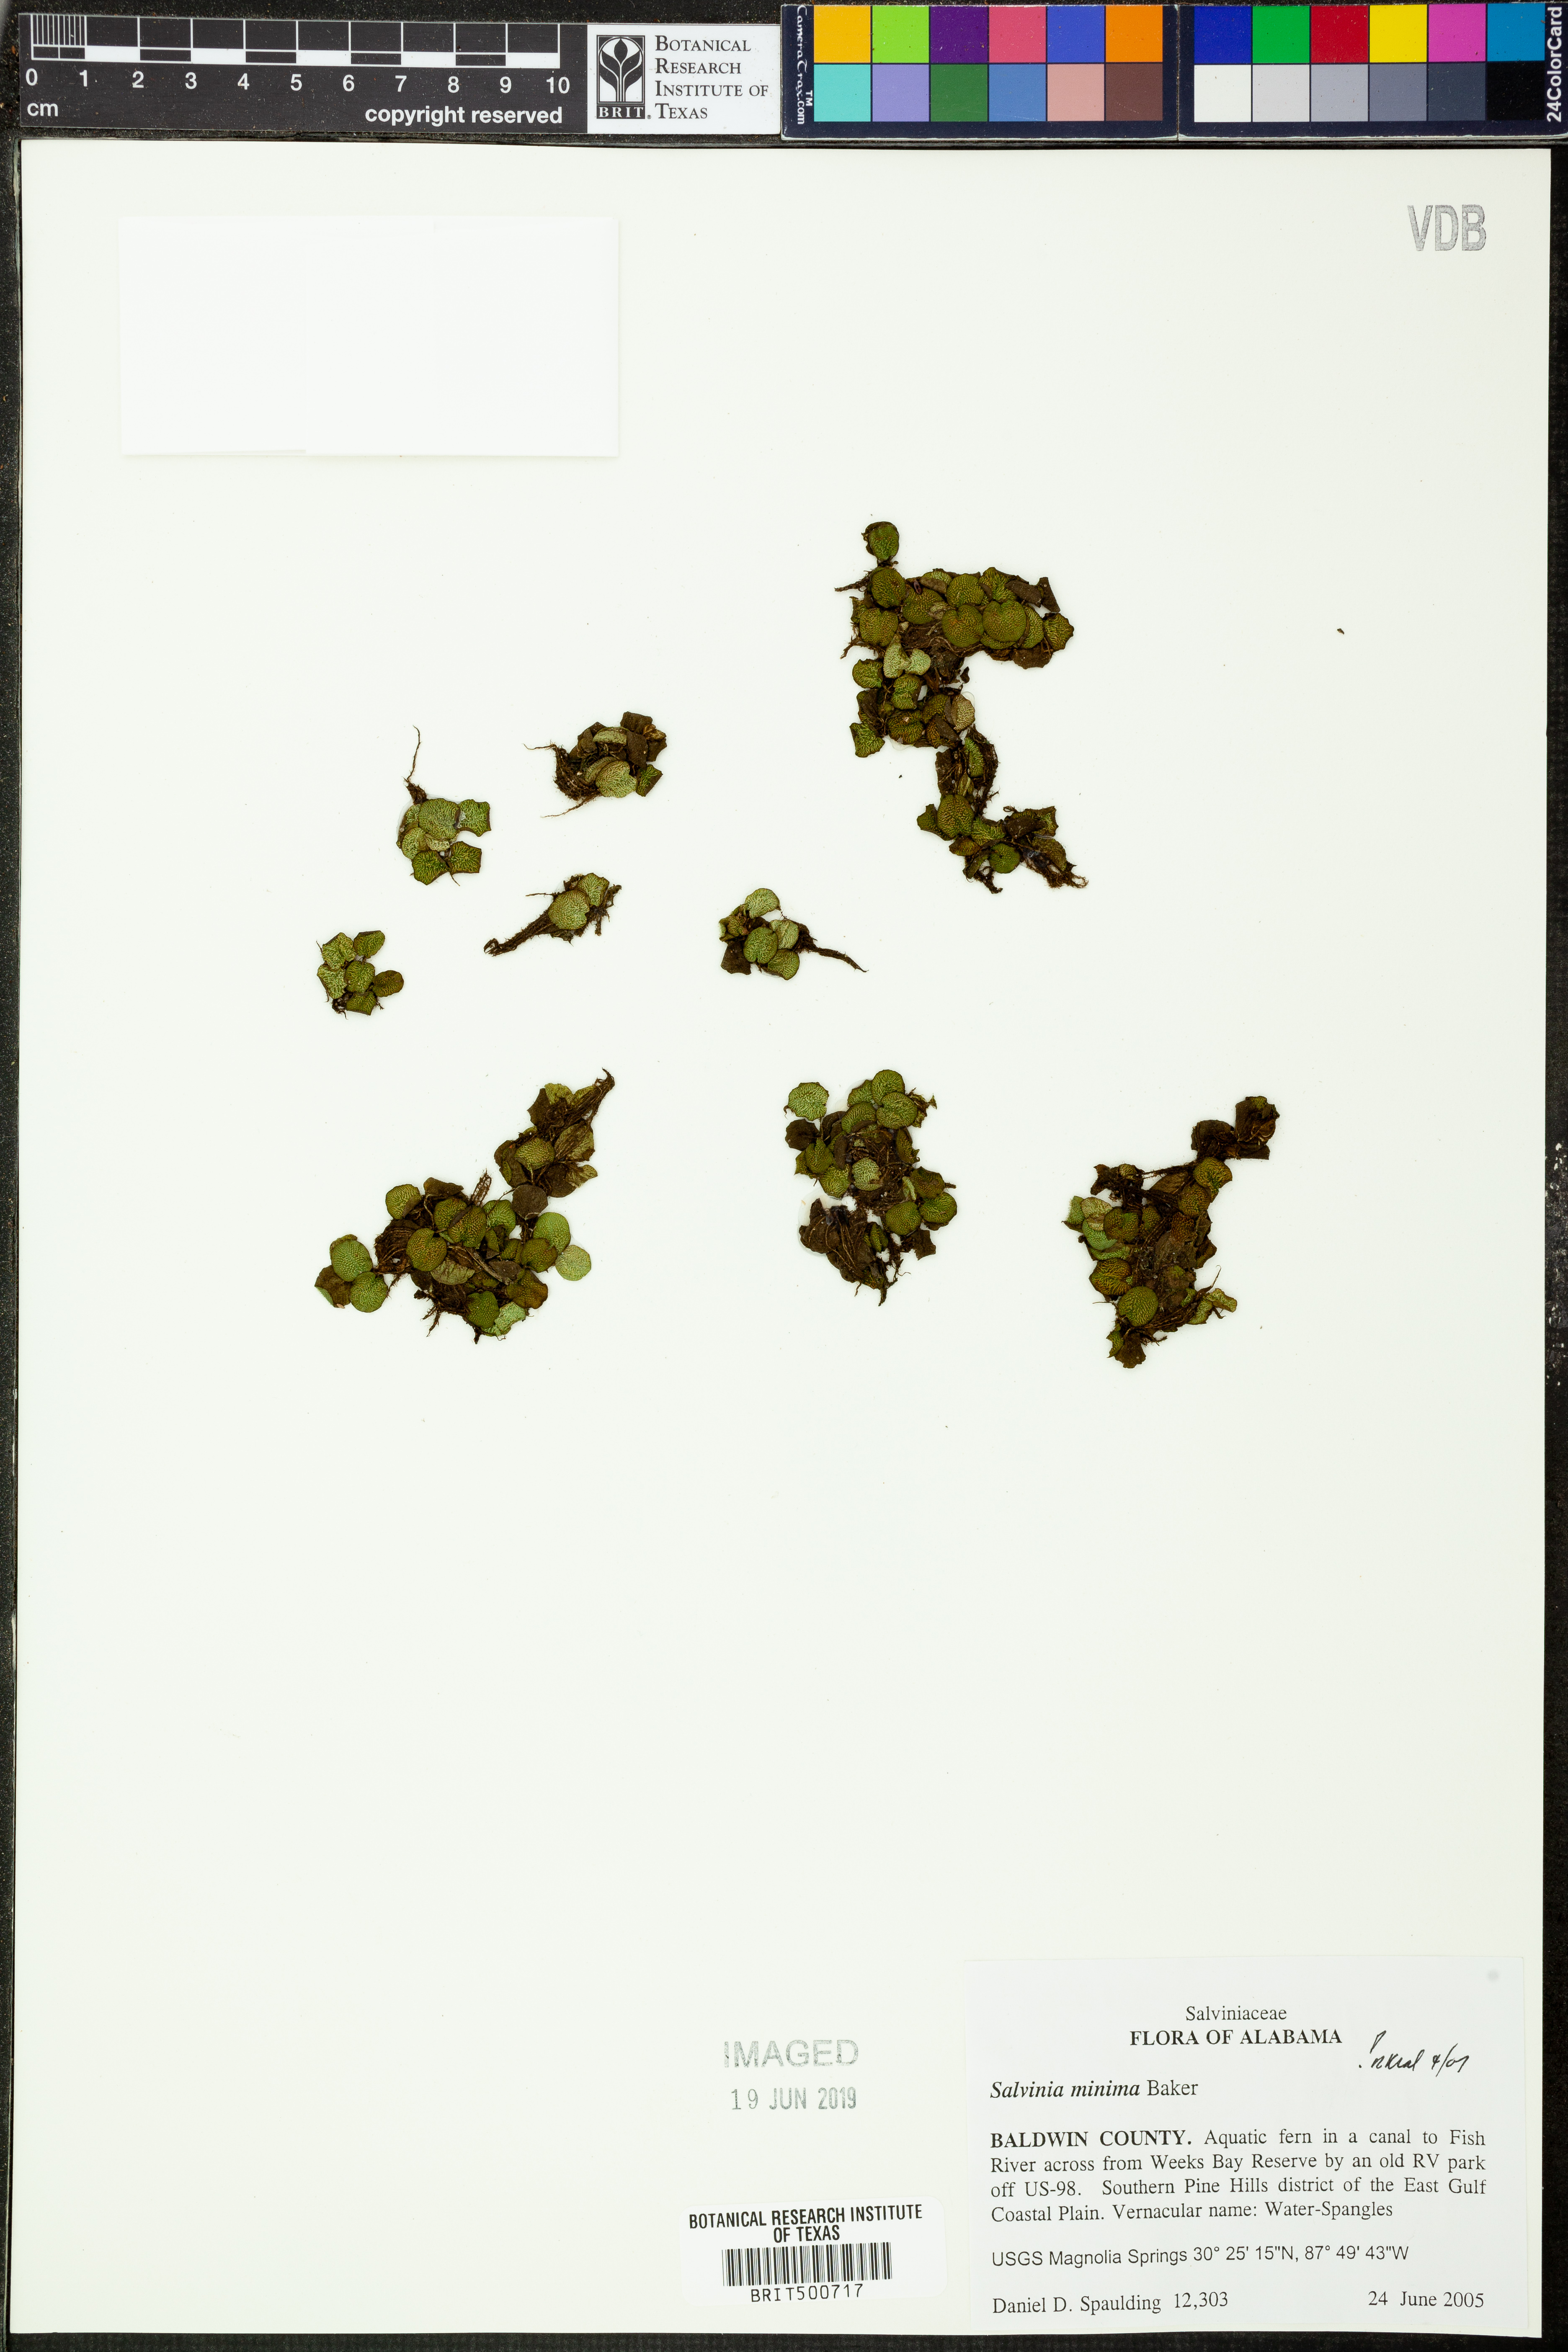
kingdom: Plantae
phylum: Tracheophyta
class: Polypodiopsida
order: Salviniales
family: Salviniaceae
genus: Salvinia
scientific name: Salvinia minima
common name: Water spangles
